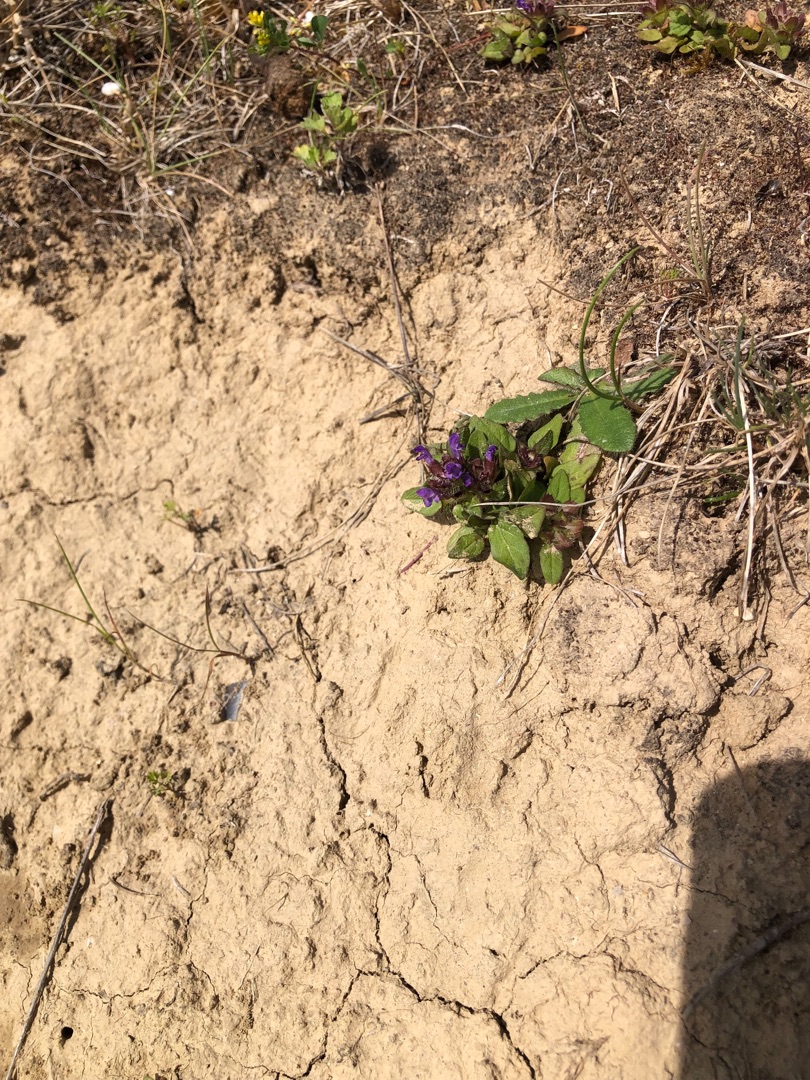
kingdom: Plantae
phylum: Tracheophyta
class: Magnoliopsida
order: Lamiales
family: Lamiaceae
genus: Prunella
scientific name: Prunella vulgaris
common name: Almindelig brunelle
